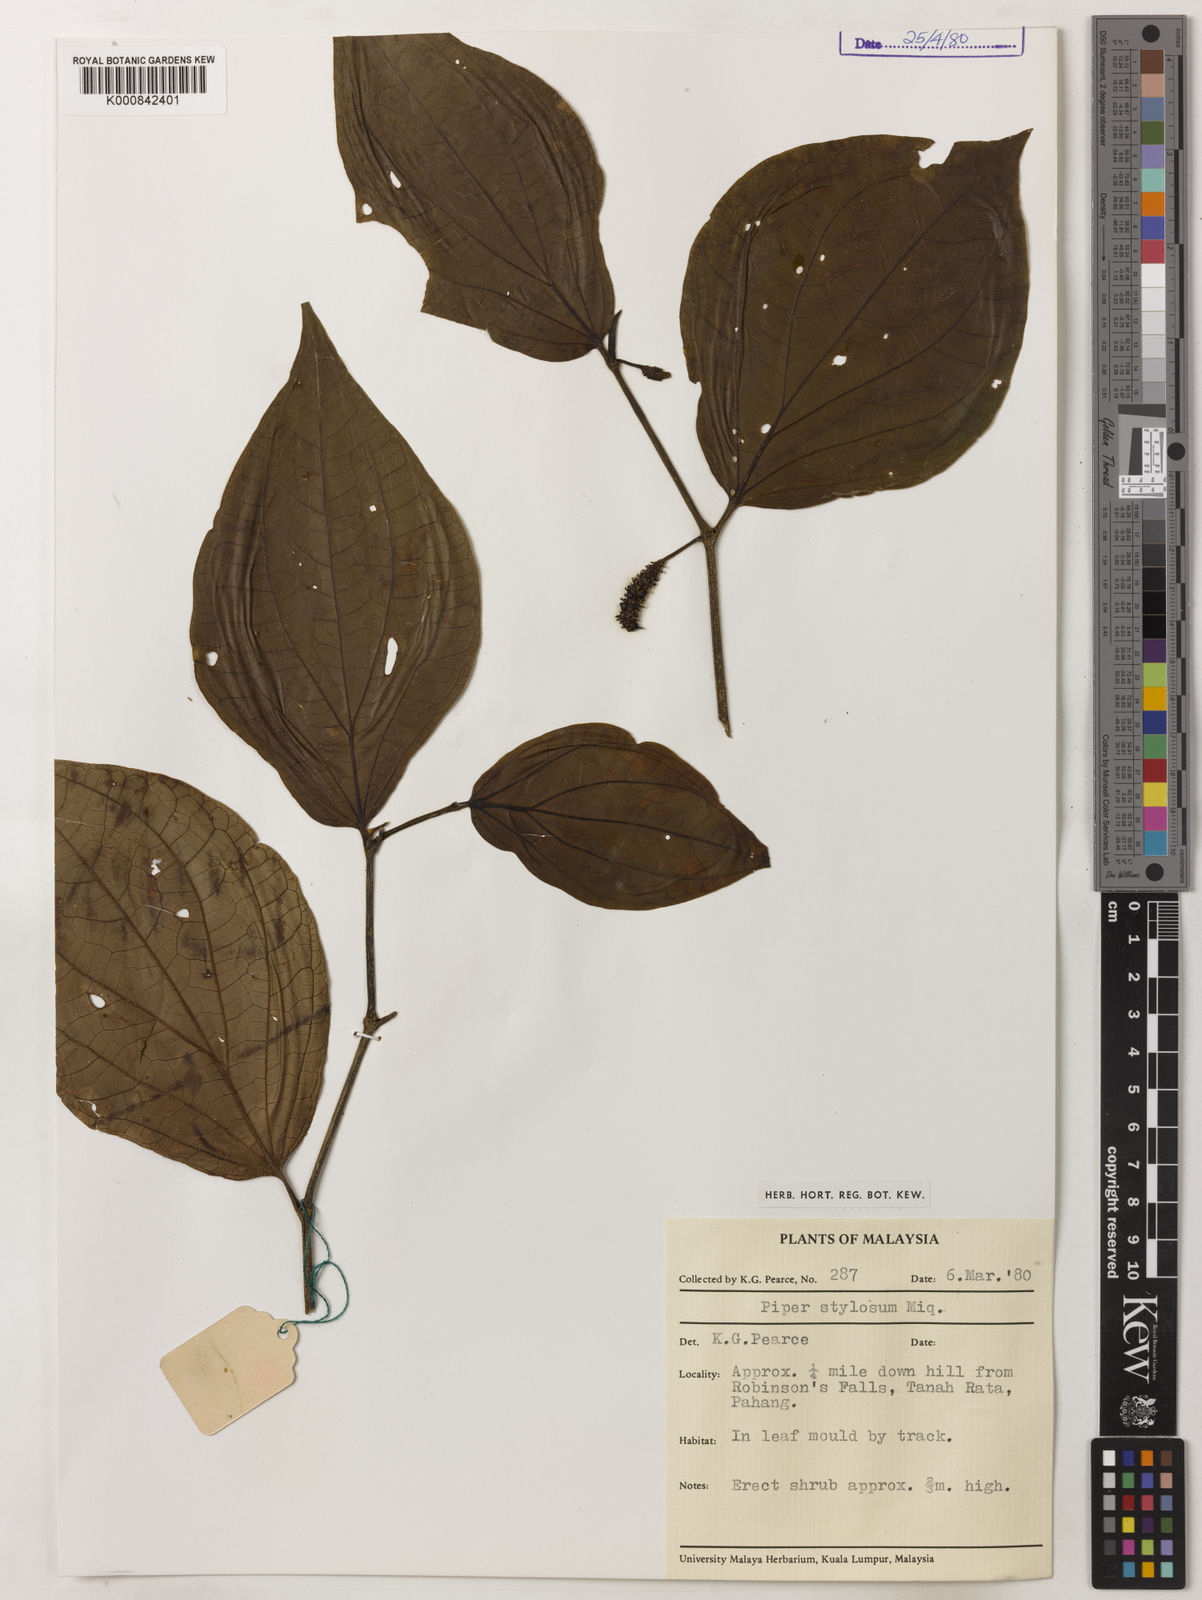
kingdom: Plantae
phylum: Tracheophyta
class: Magnoliopsida
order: Piperales
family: Piperaceae
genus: Piper
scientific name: Piper rostratum
